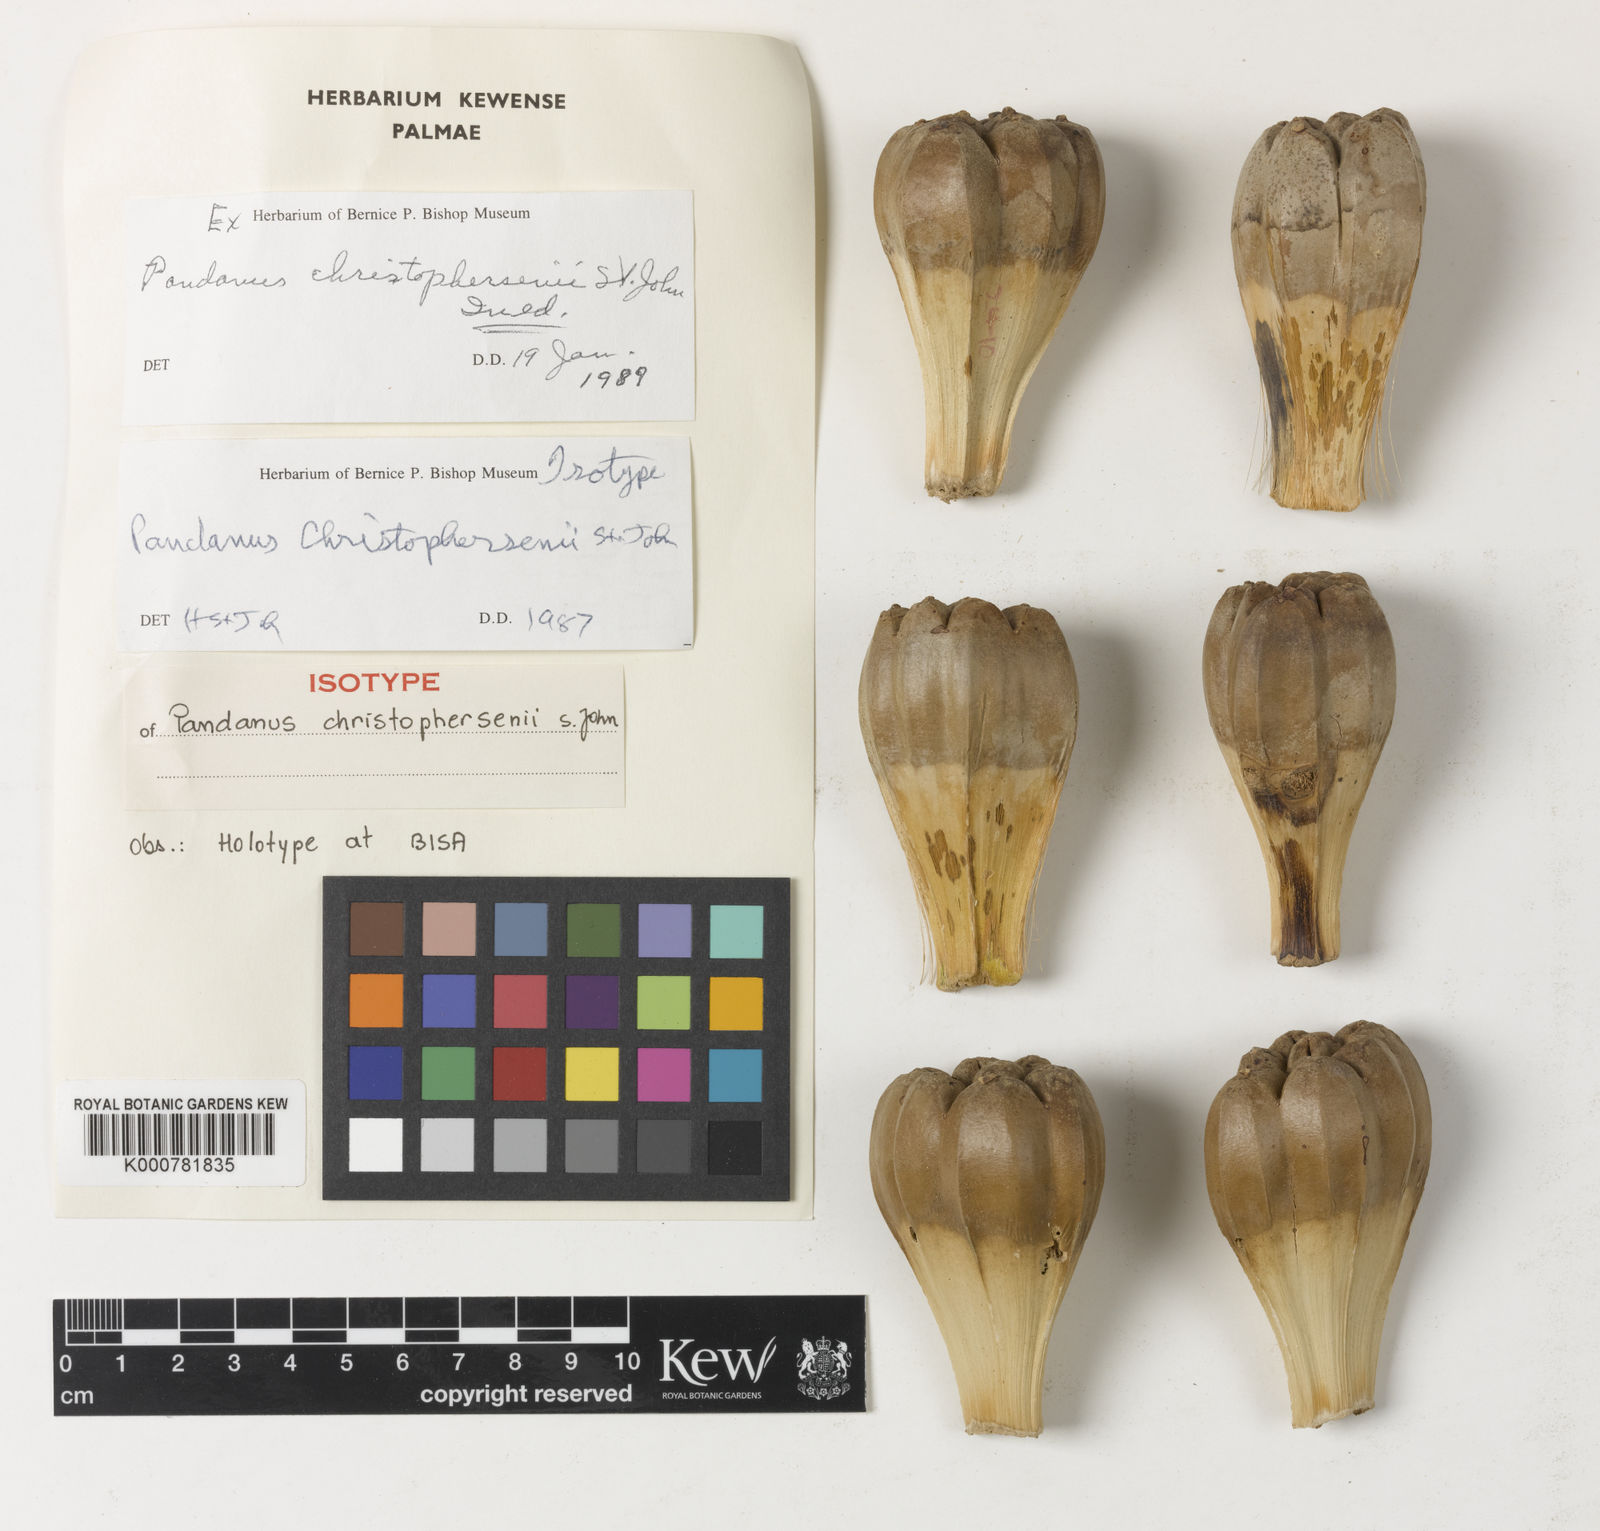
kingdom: Plantae
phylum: Tracheophyta
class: Liliopsida
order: Pandanales
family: Pandanaceae
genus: Pandanus
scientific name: Pandanus tectorius
